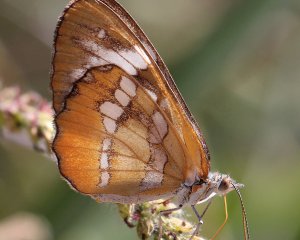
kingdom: Animalia
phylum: Arthropoda
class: Insecta
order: Lepidoptera
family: Nymphalidae
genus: Mestra
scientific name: Mestra amymone
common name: Common Mestra
